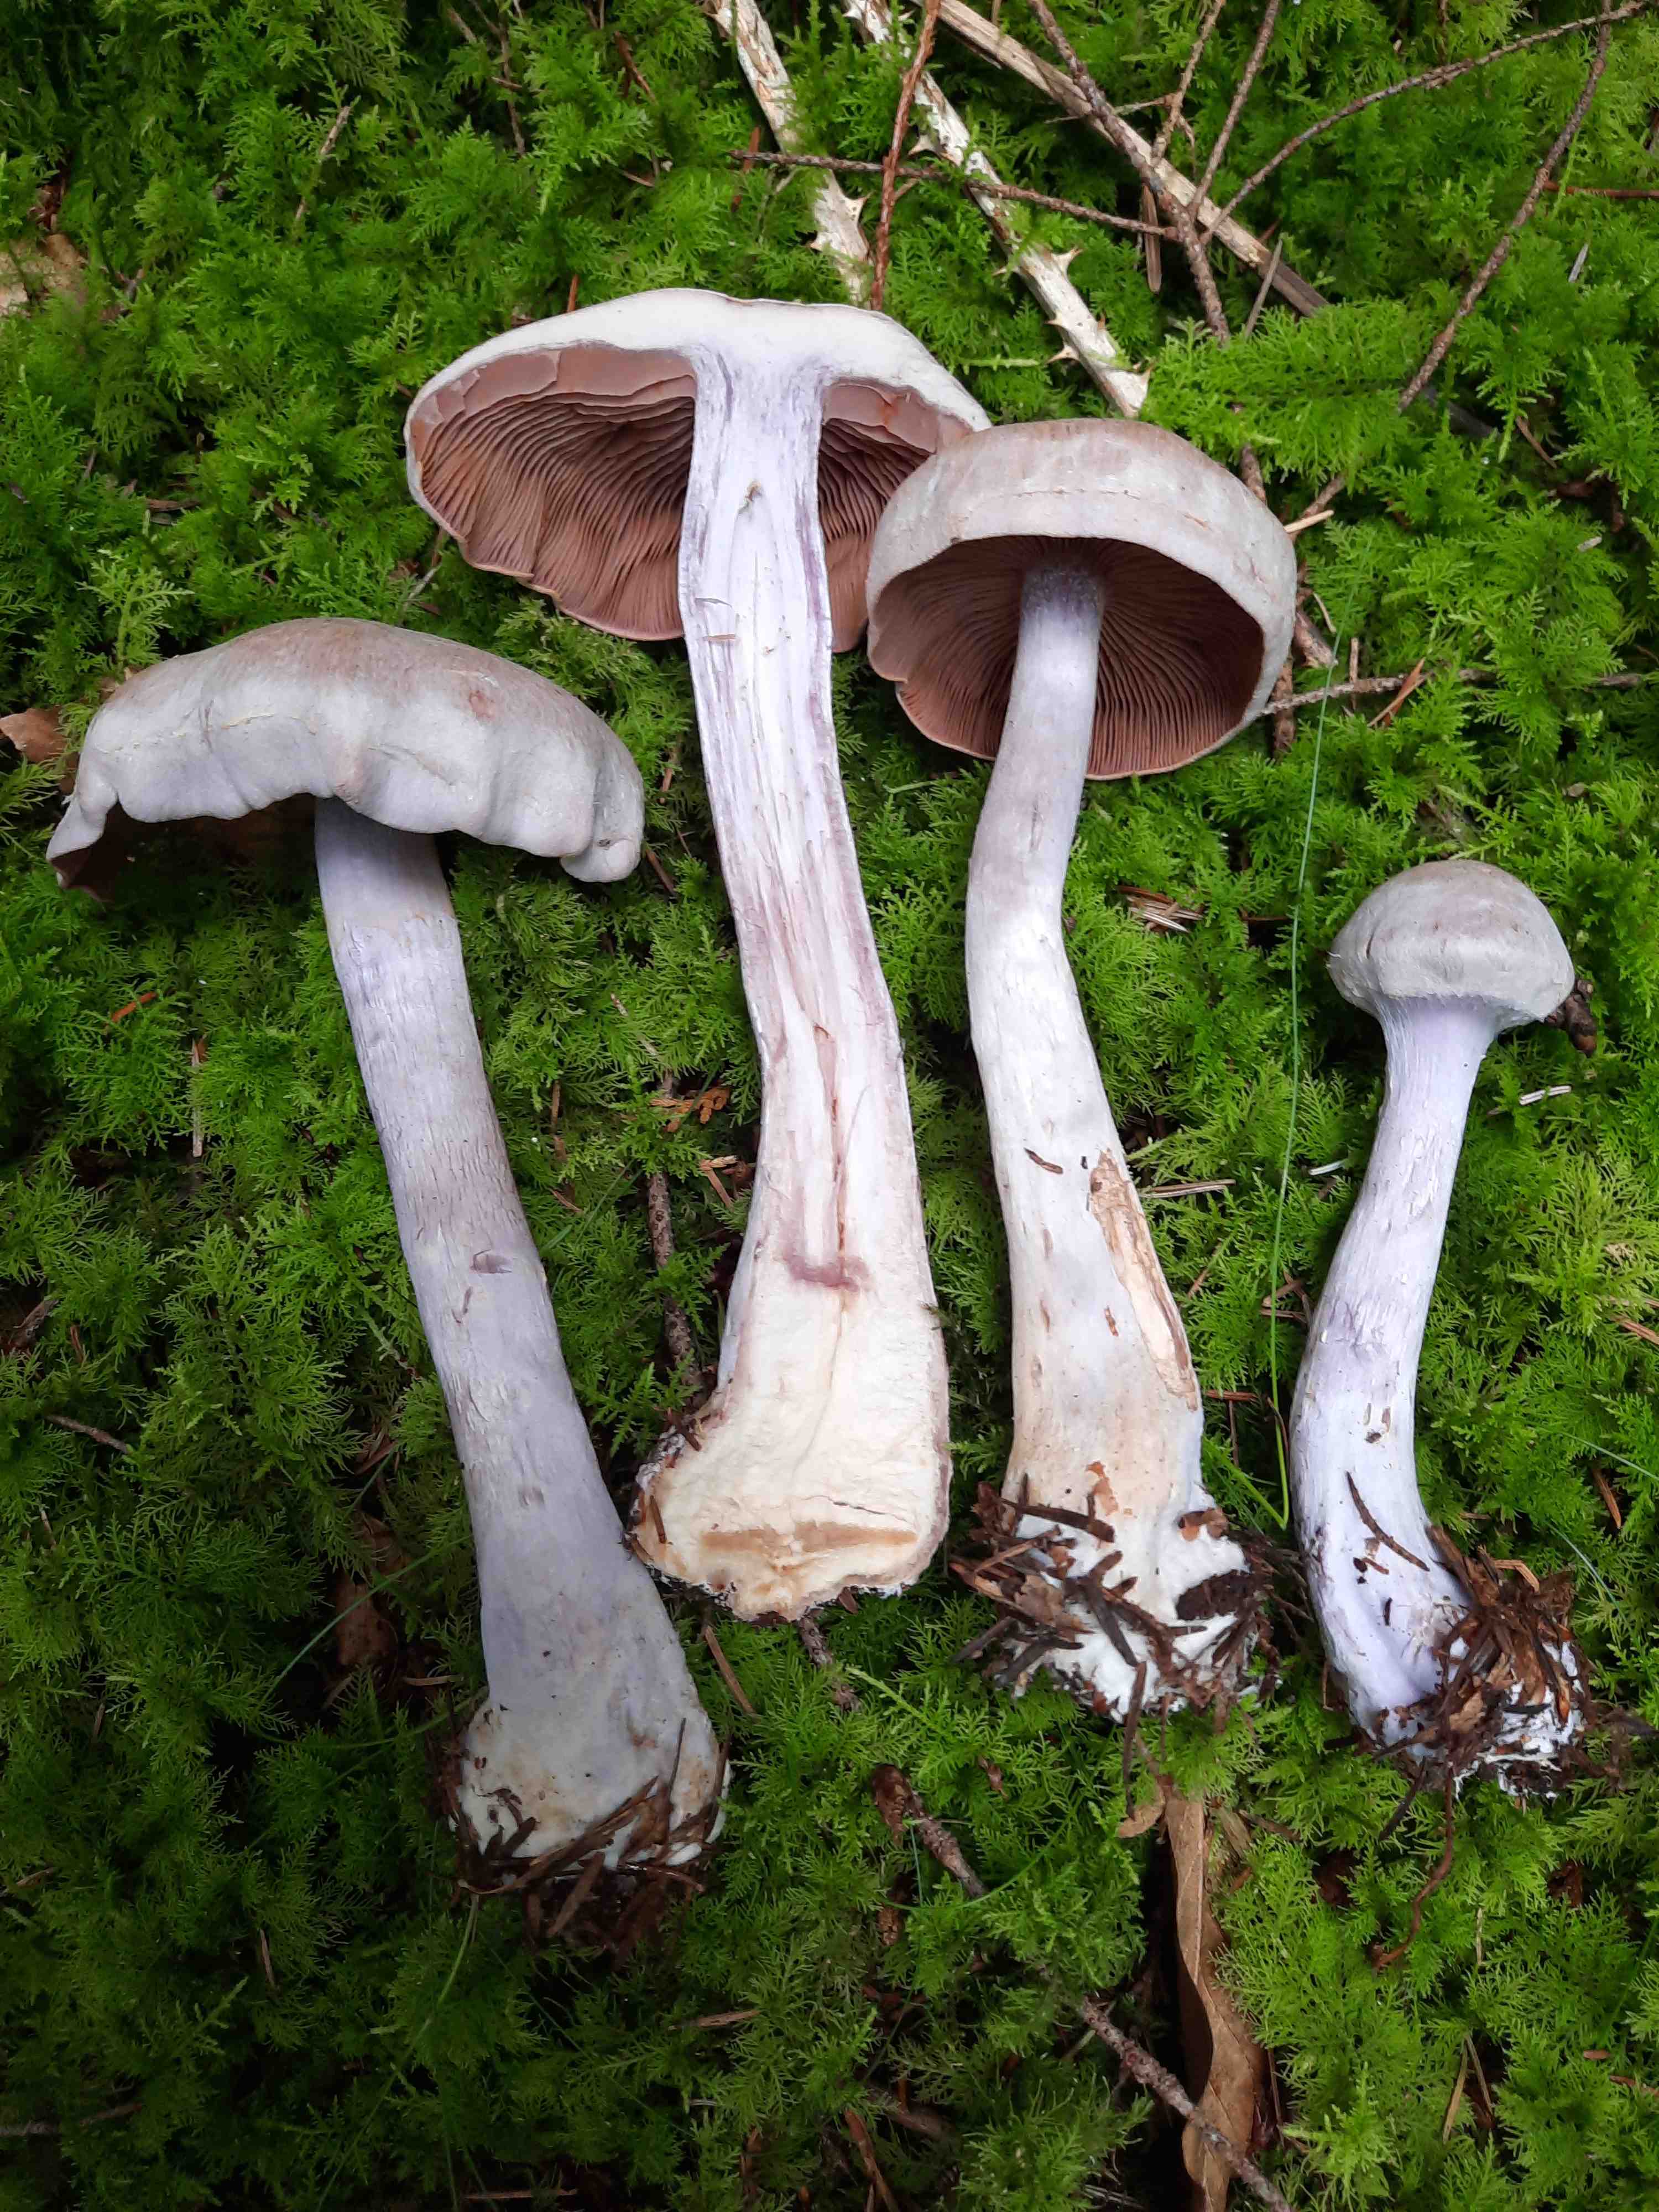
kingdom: Fungi
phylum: Basidiomycota
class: Agaricomycetes
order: Agaricales
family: Cortinariaceae
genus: Cortinarius
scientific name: Cortinarius camphoratus
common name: stinkende slørhat
